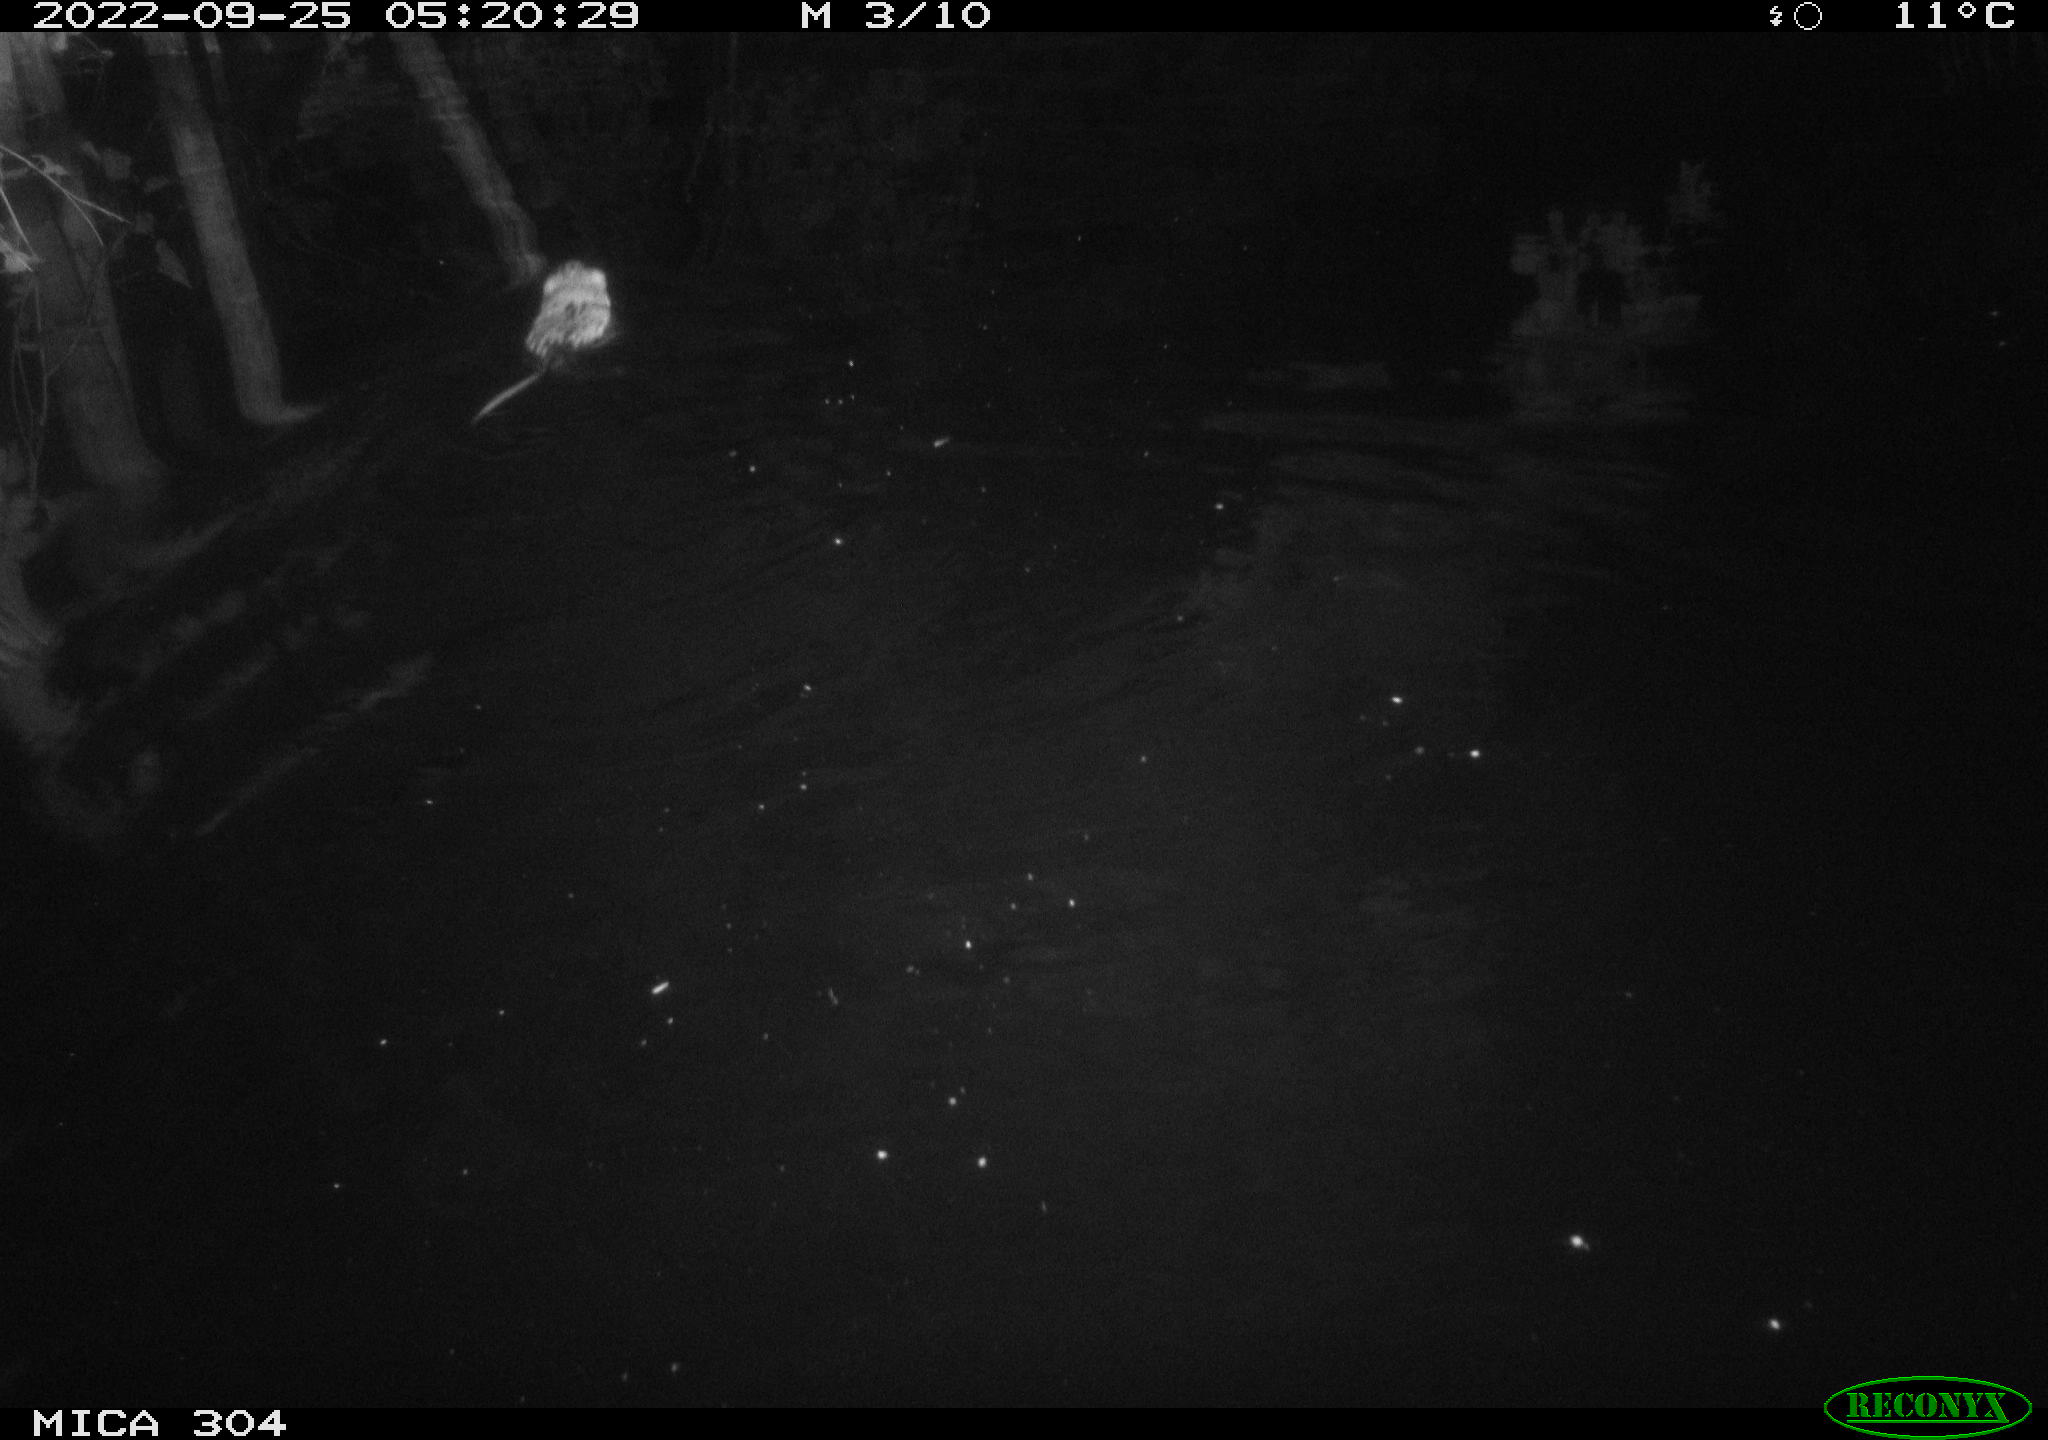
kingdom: Animalia
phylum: Chordata
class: Mammalia
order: Rodentia
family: Cricetidae
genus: Ondatra
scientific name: Ondatra zibethicus
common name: Muskrat
